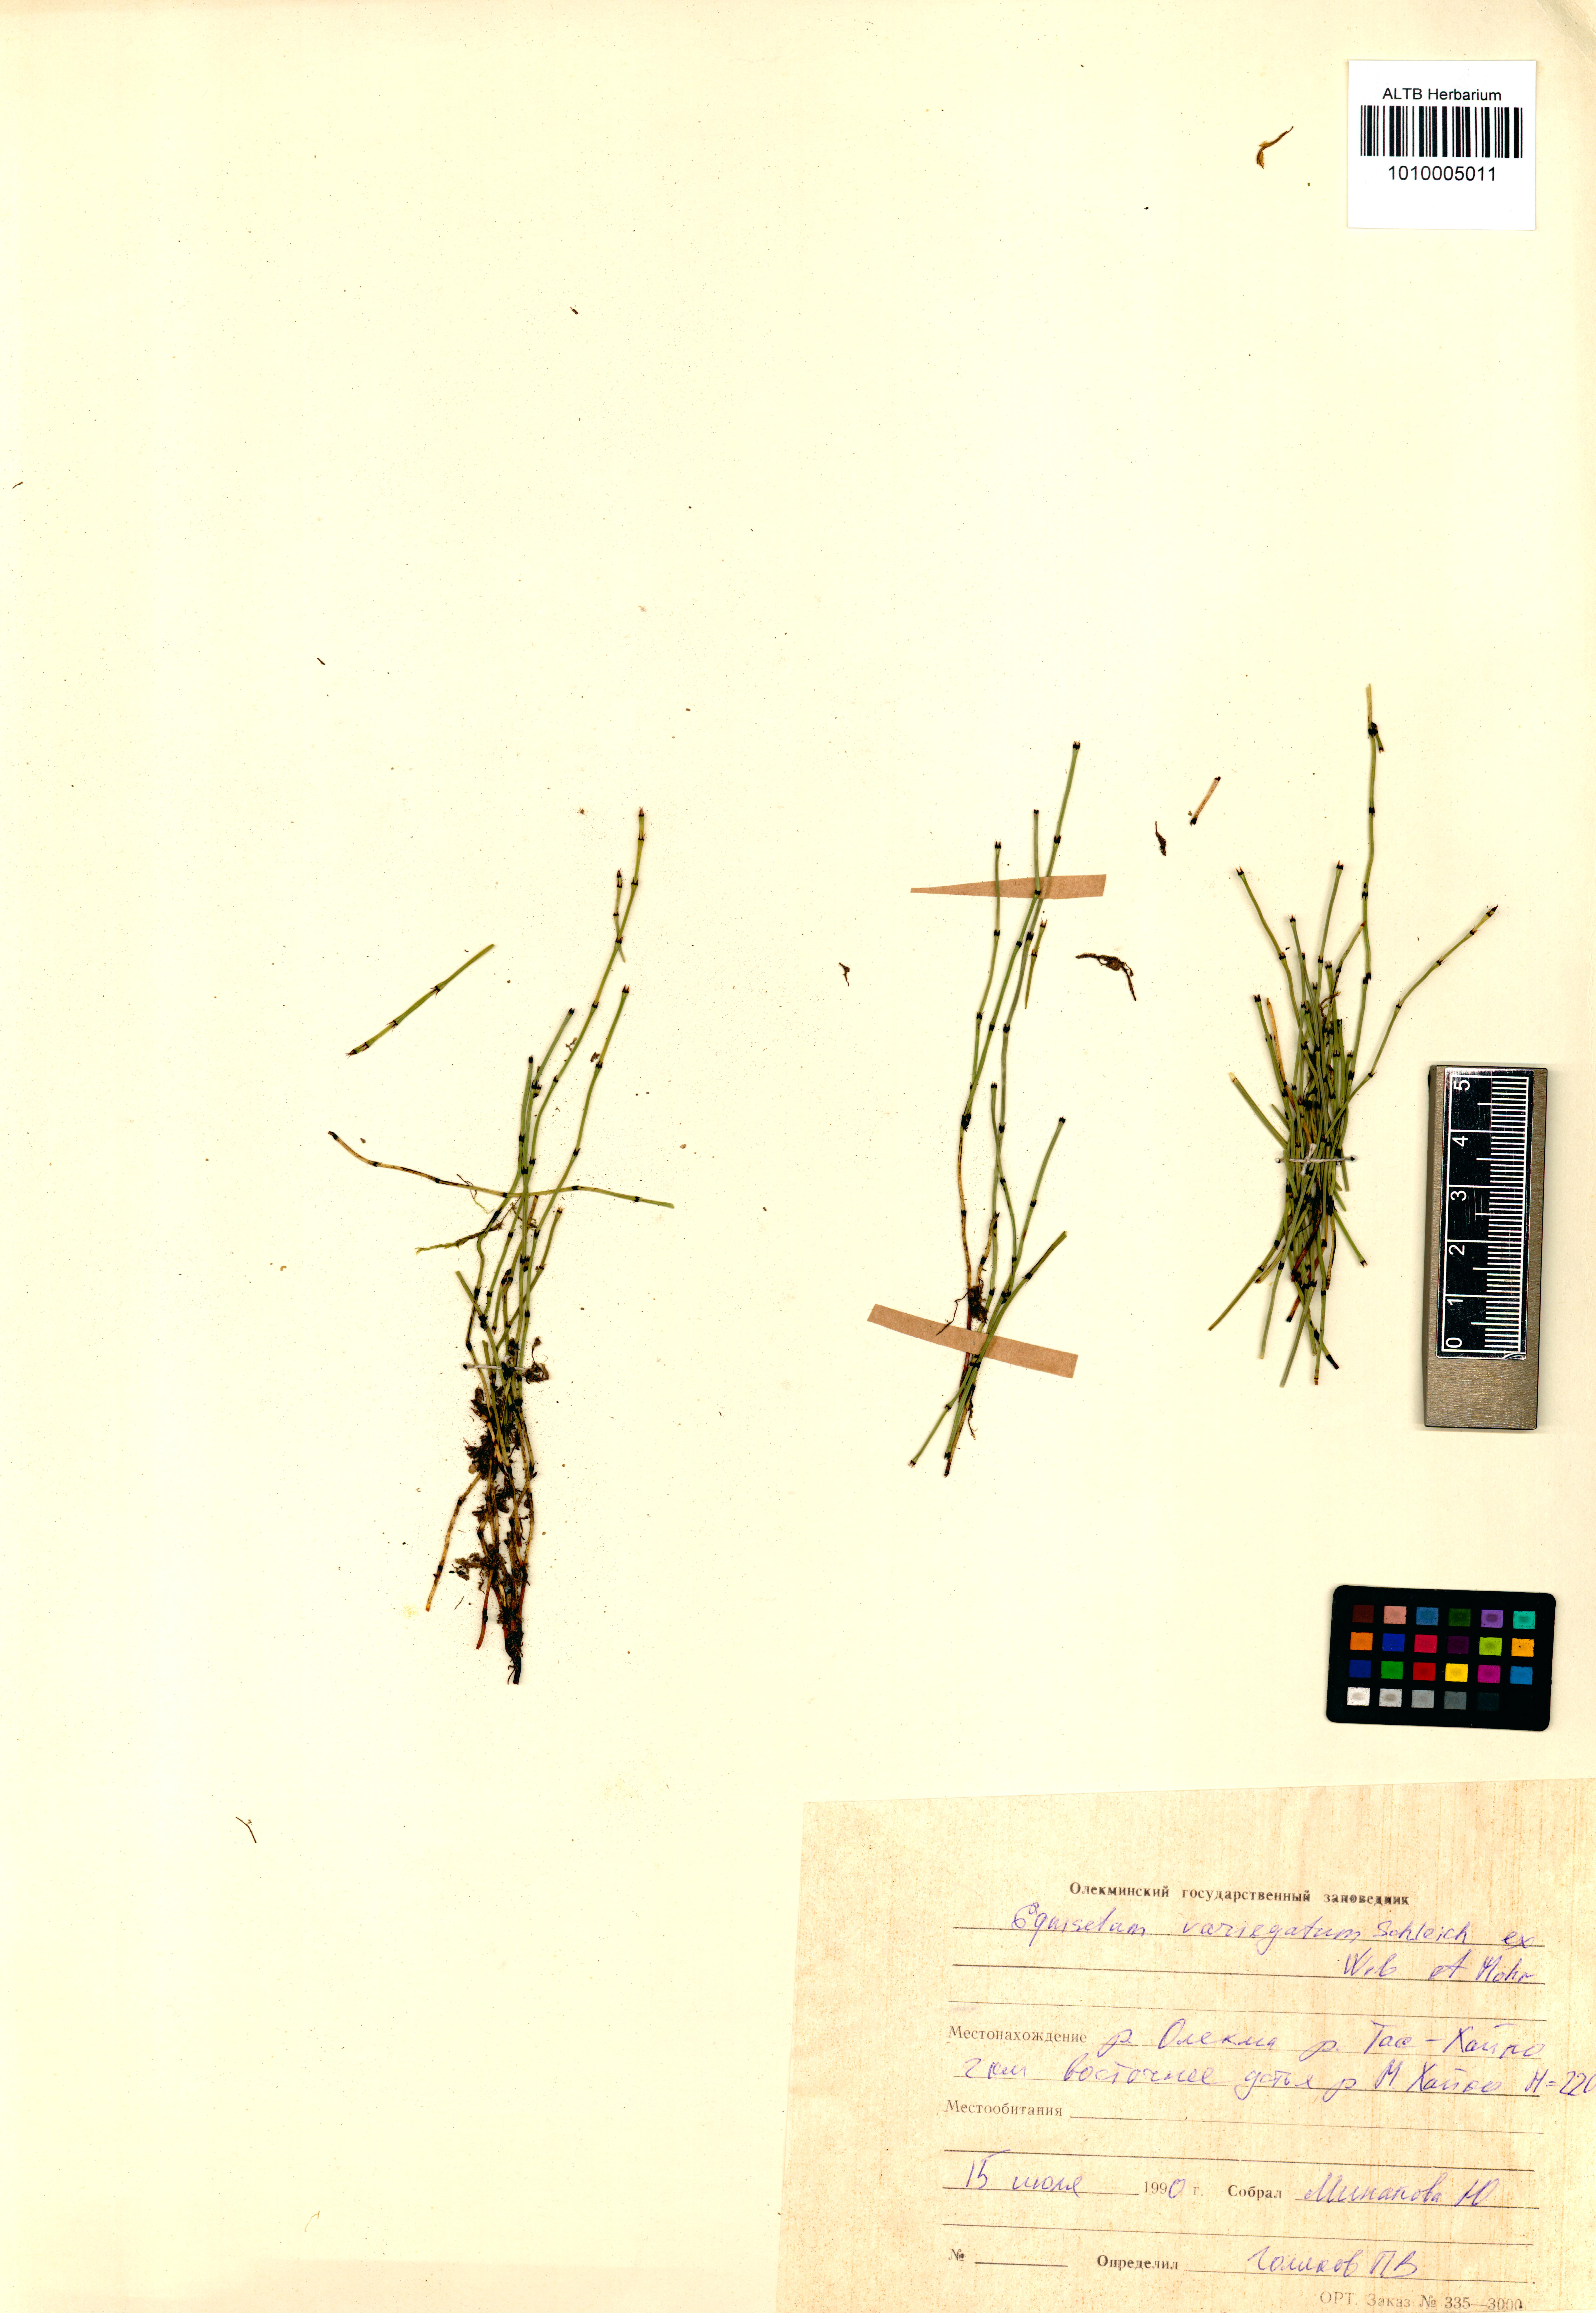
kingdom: Plantae
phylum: Tracheophyta
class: Polypodiopsida
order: Equisetales
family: Equisetaceae
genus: Equisetum
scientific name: Equisetum variegatum
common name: Variegated horsetail
